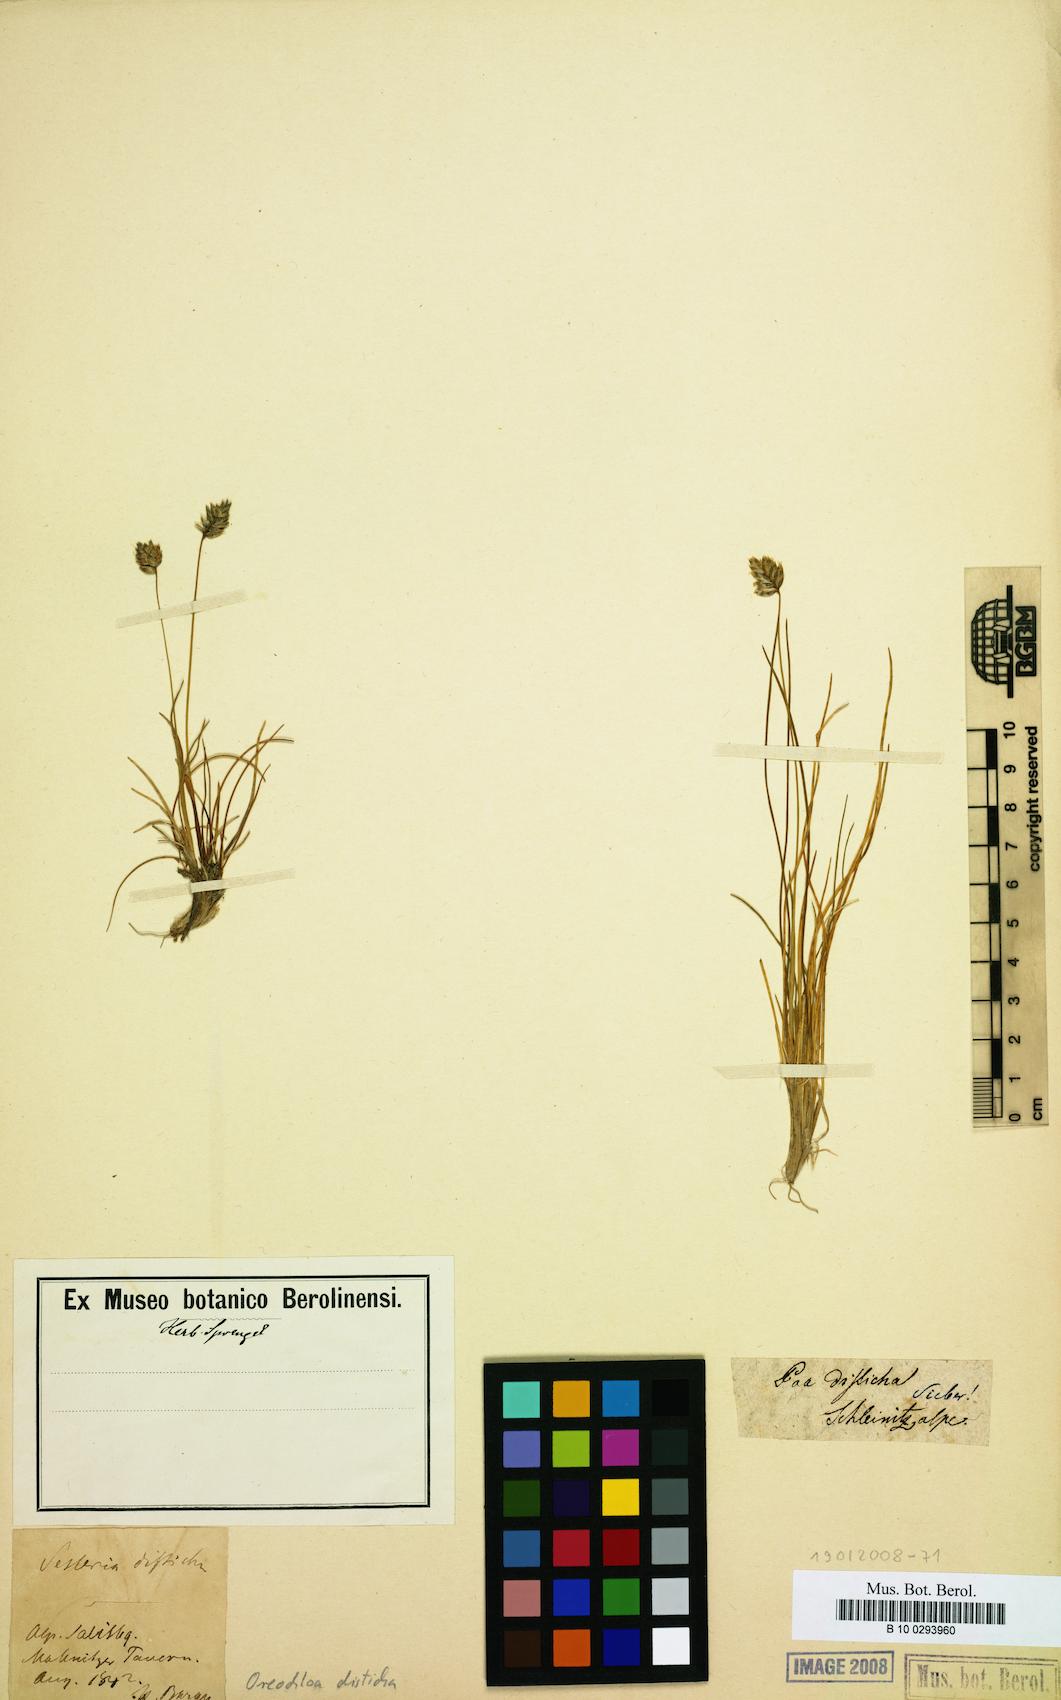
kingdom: Plantae
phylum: Tracheophyta
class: Liliopsida
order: Poales
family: Poaceae
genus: Oreochloa
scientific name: Oreochloa disticha
